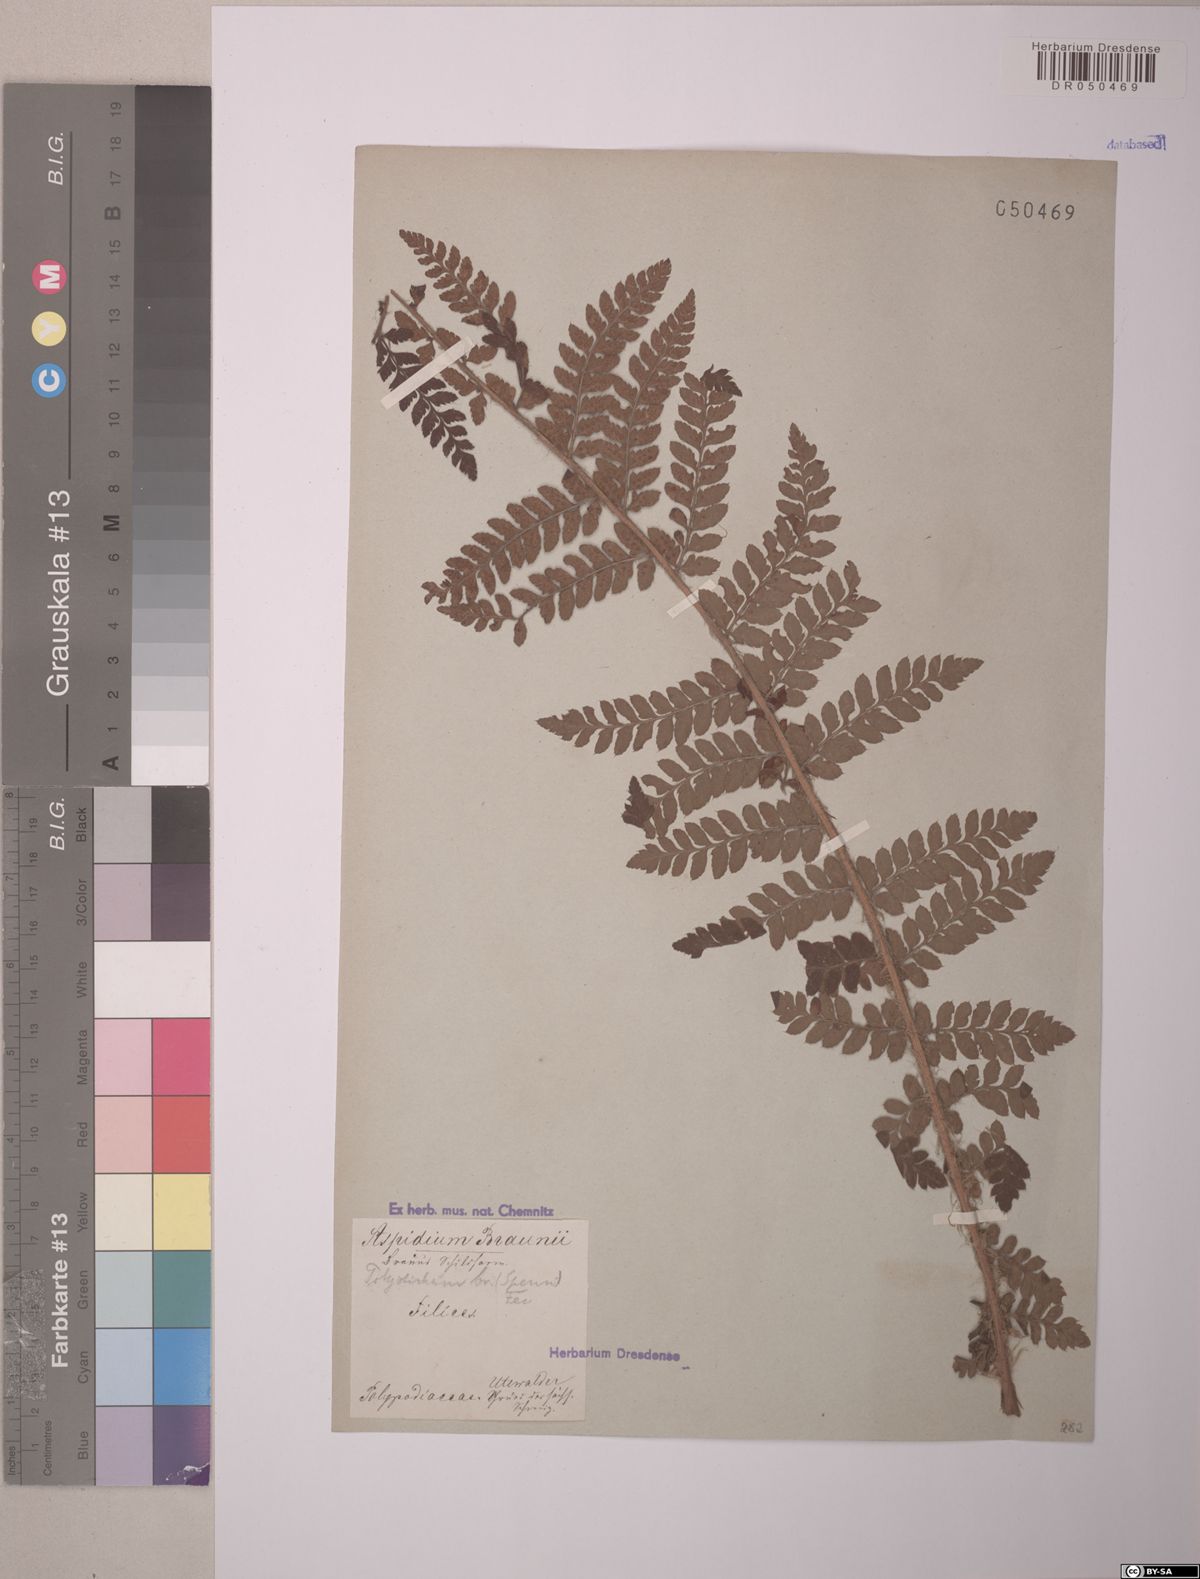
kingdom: Plantae
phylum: Tracheophyta
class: Polypodiopsida
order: Polypodiales
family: Dryopteridaceae
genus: Polystichum
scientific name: Polystichum braunii
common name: Braun's holly fern
